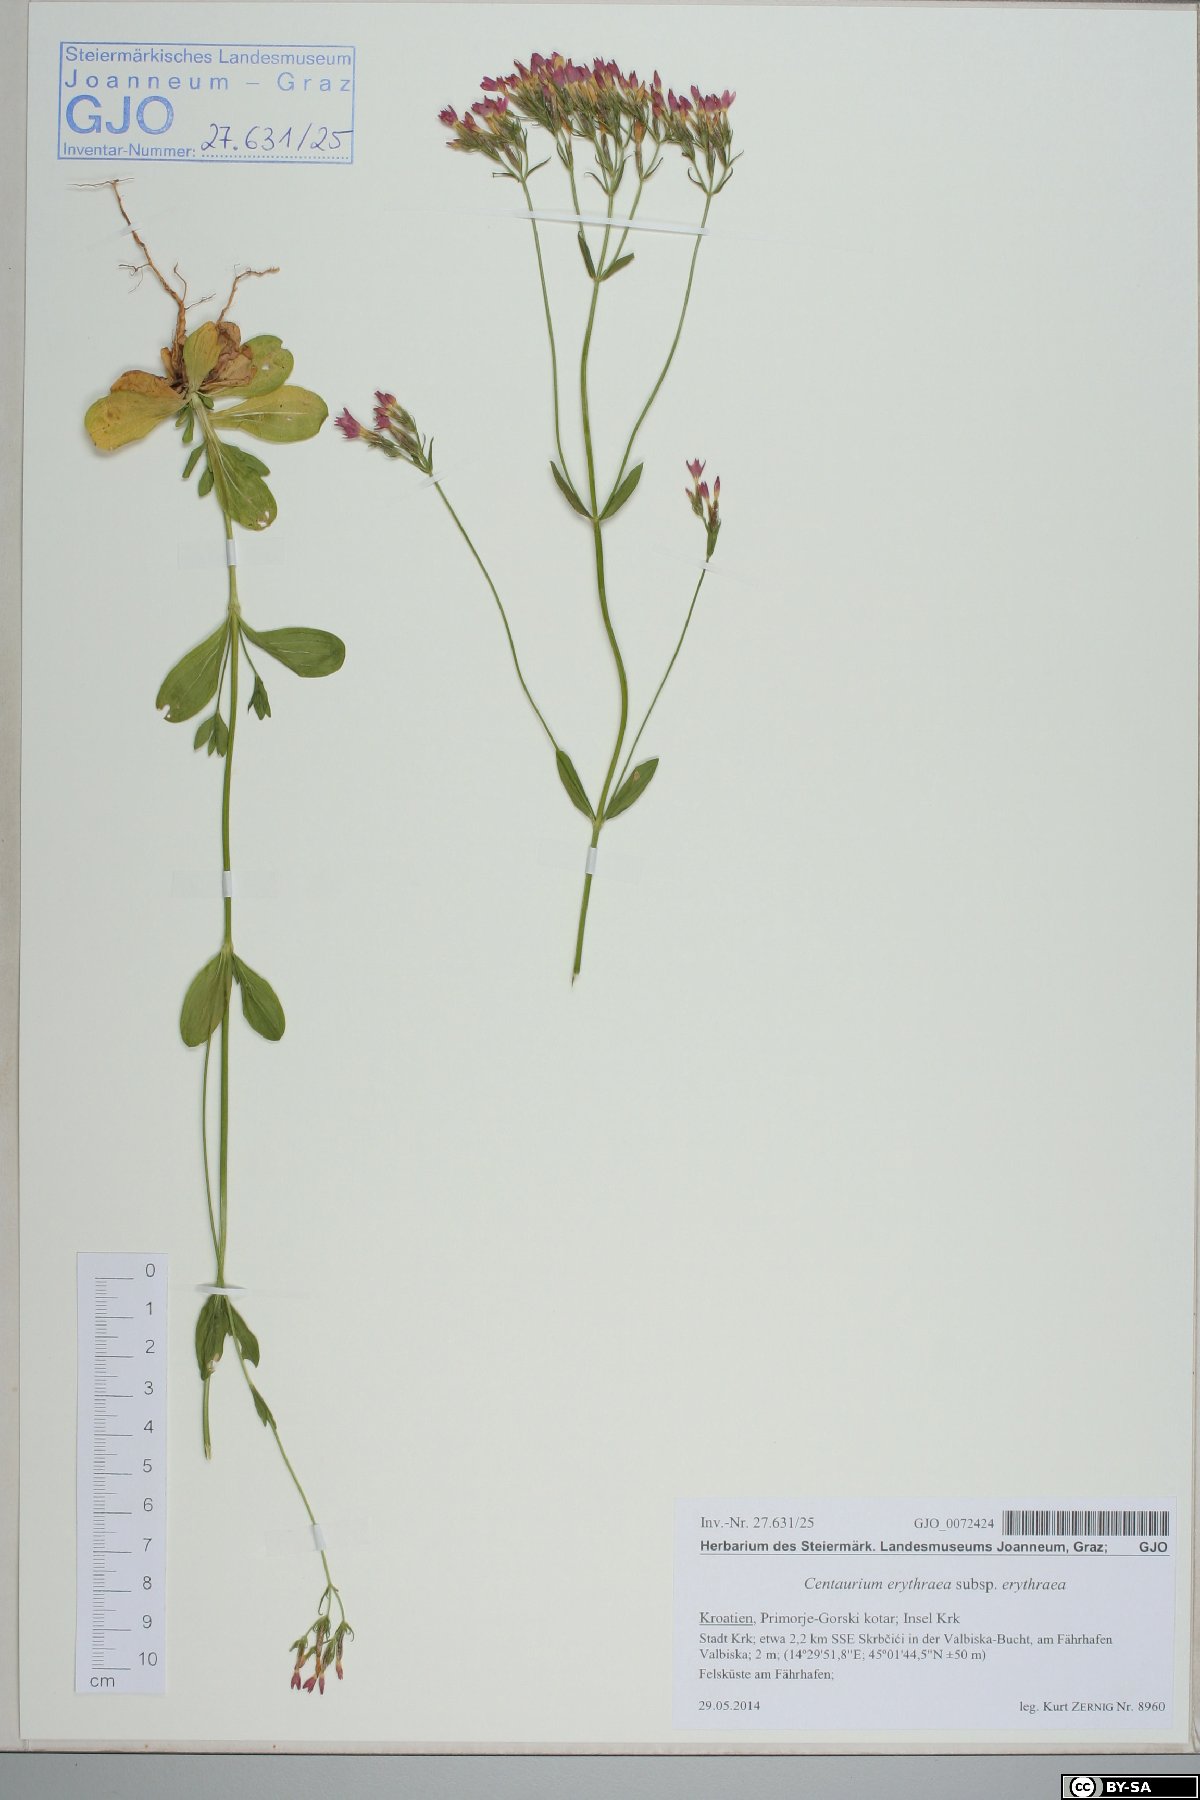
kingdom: Plantae
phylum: Tracheophyta
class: Magnoliopsida
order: Gentianales
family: Gentianaceae
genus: Centaurium
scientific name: Centaurium erythraea
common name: Common centaury
